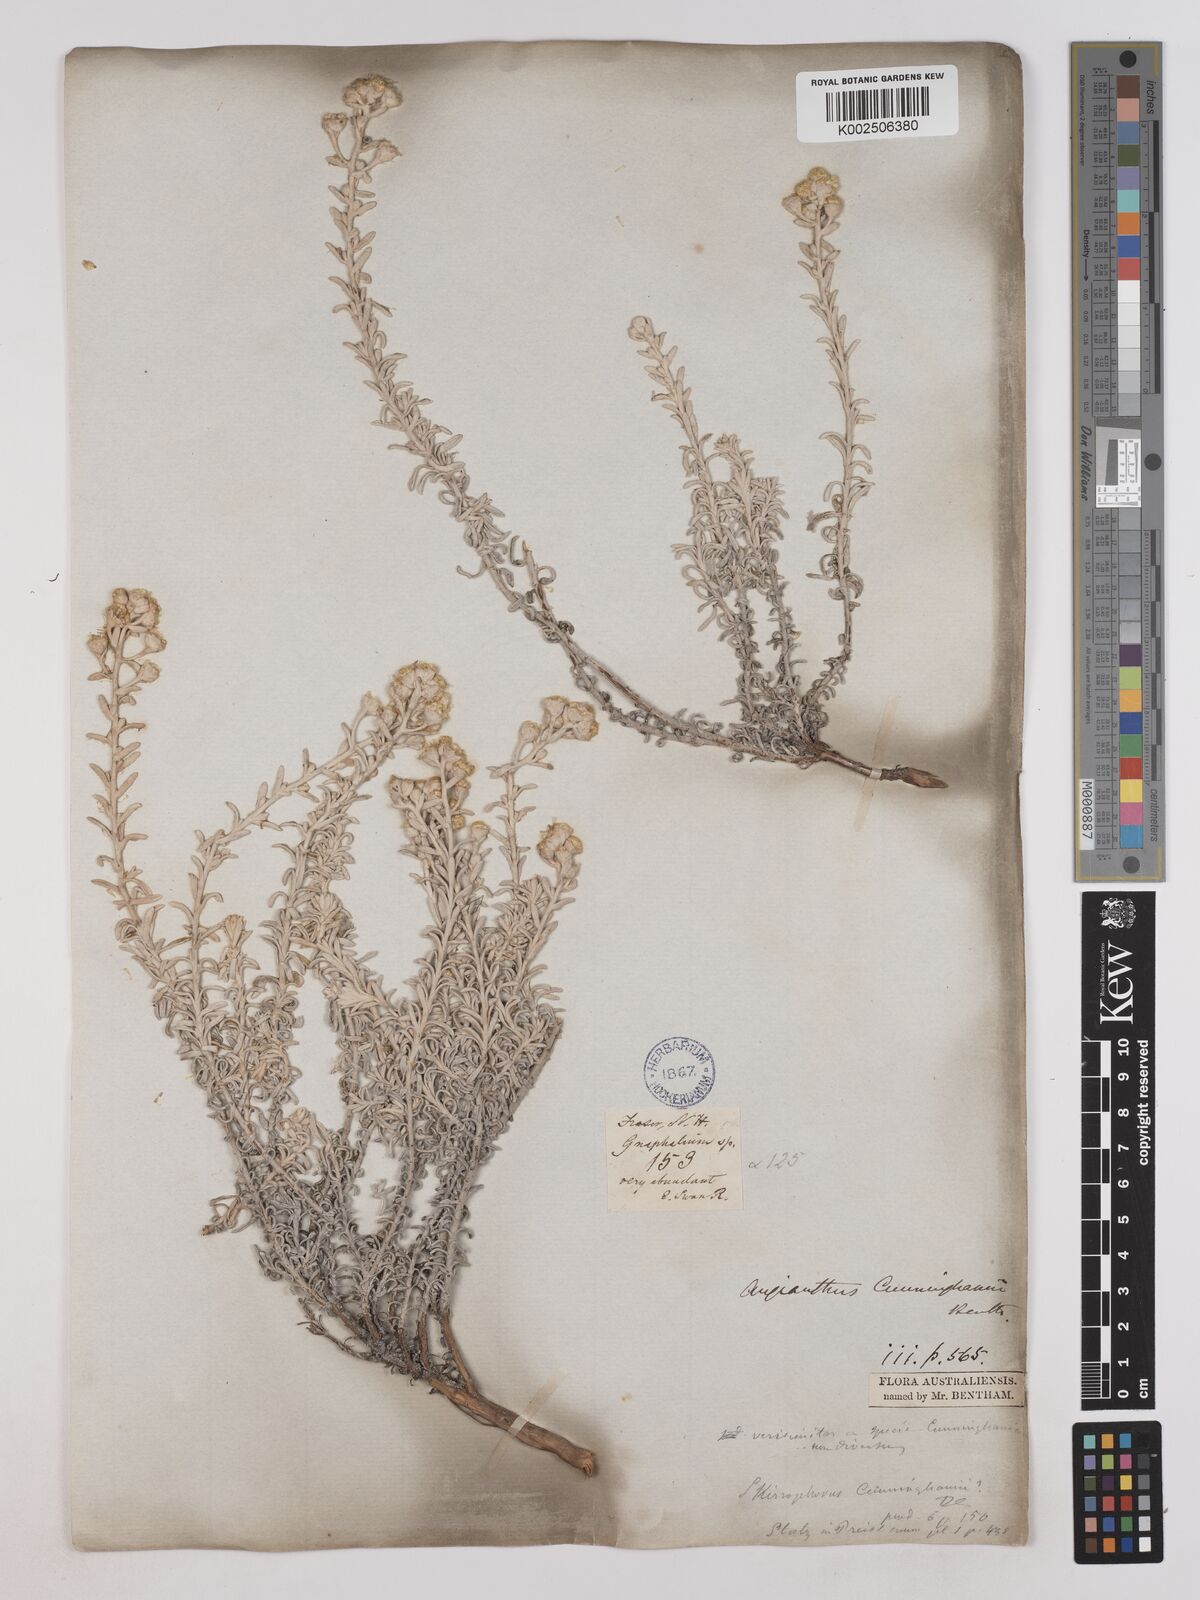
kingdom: Plantae
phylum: Tracheophyta
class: Magnoliopsida
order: Asterales
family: Asteraceae
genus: Angianthus
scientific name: Angianthus cunninghamii
